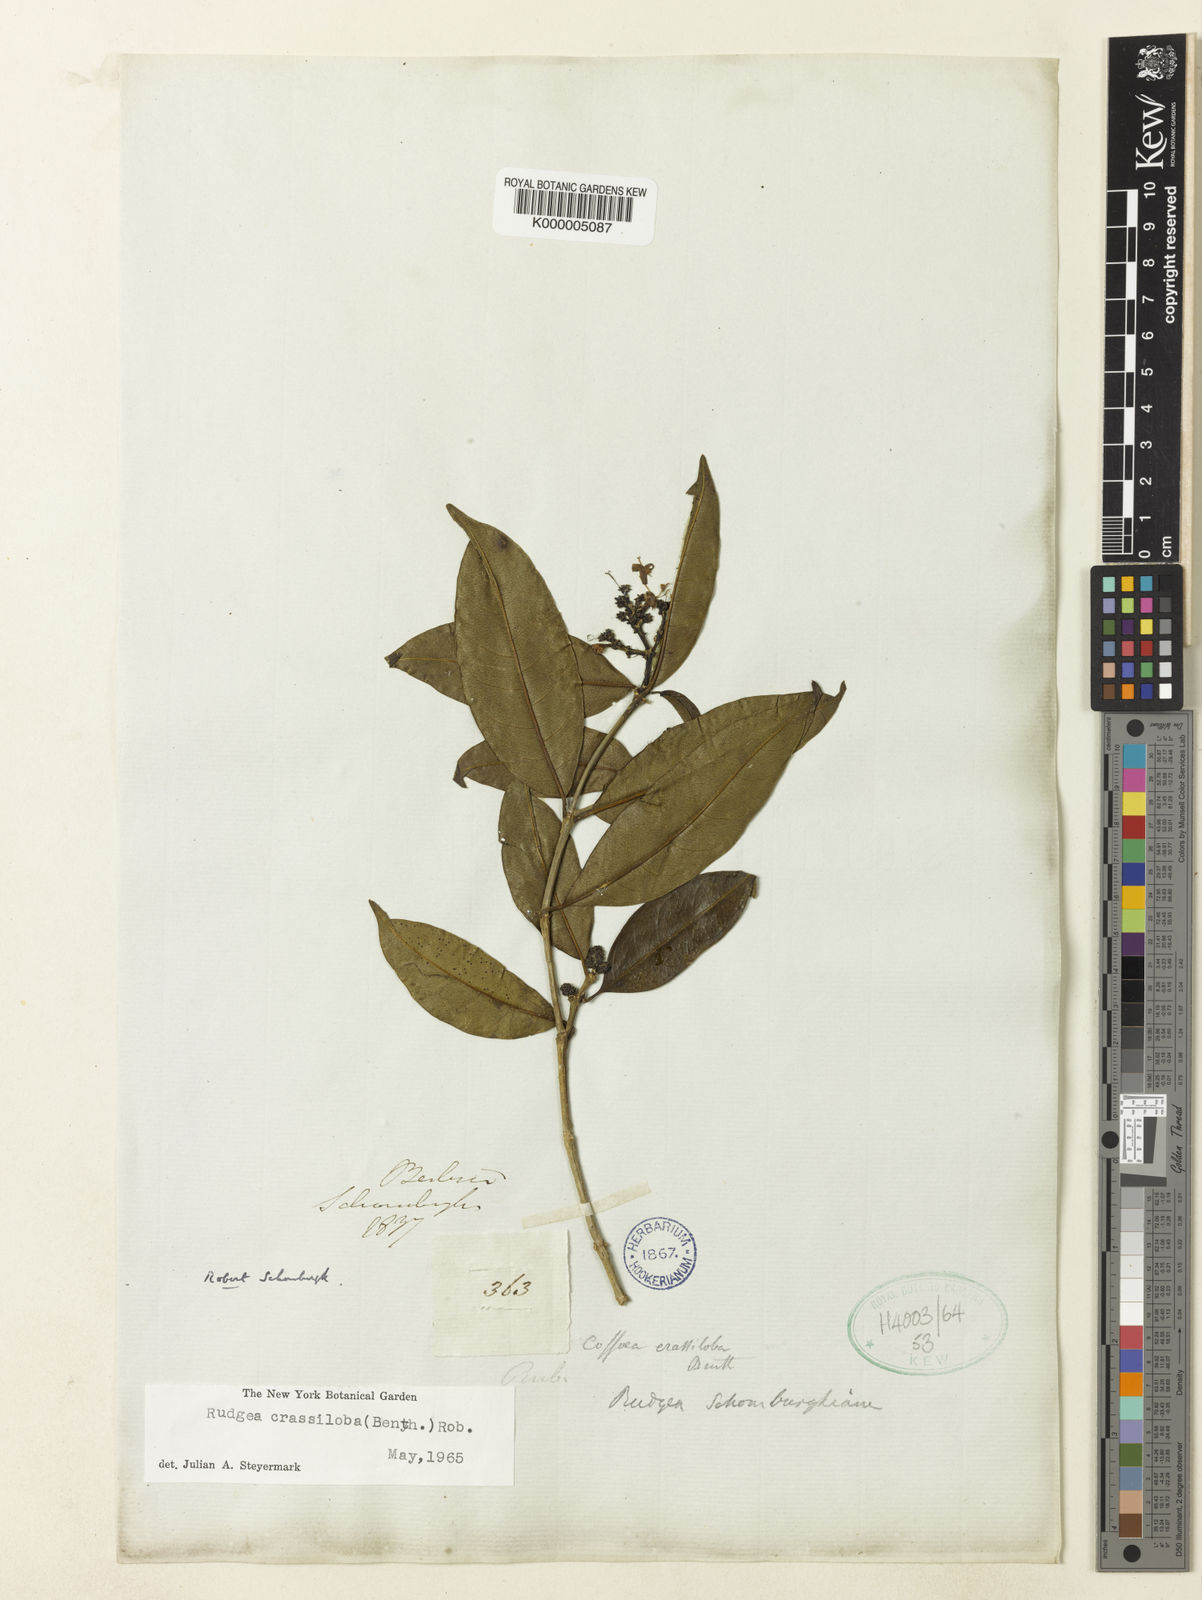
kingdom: Plantae
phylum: Tracheophyta
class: Magnoliopsida
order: Gentianales
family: Rubiaceae
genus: Rudgea
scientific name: Rudgea crassiloba
